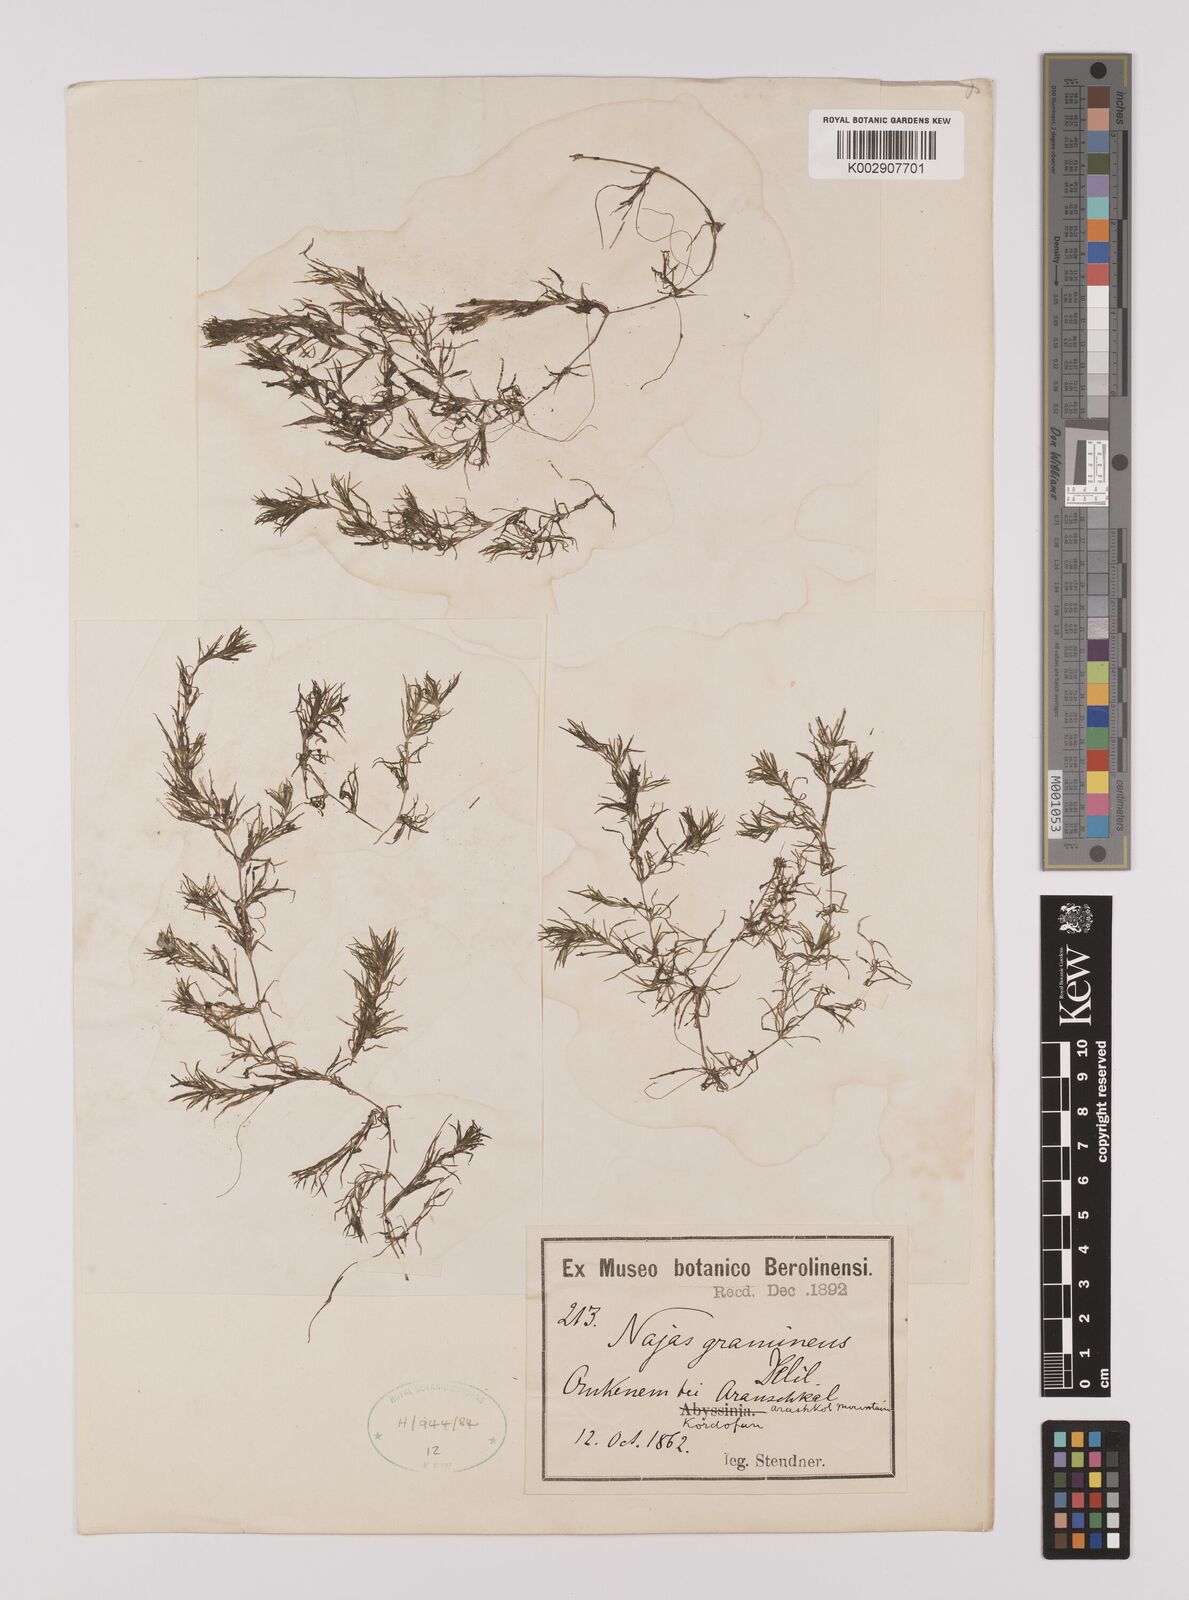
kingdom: Plantae
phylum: Tracheophyta
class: Liliopsida
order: Alismatales
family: Hydrocharitaceae
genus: Najas
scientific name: Najas graminea
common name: Ricefield waternymph
